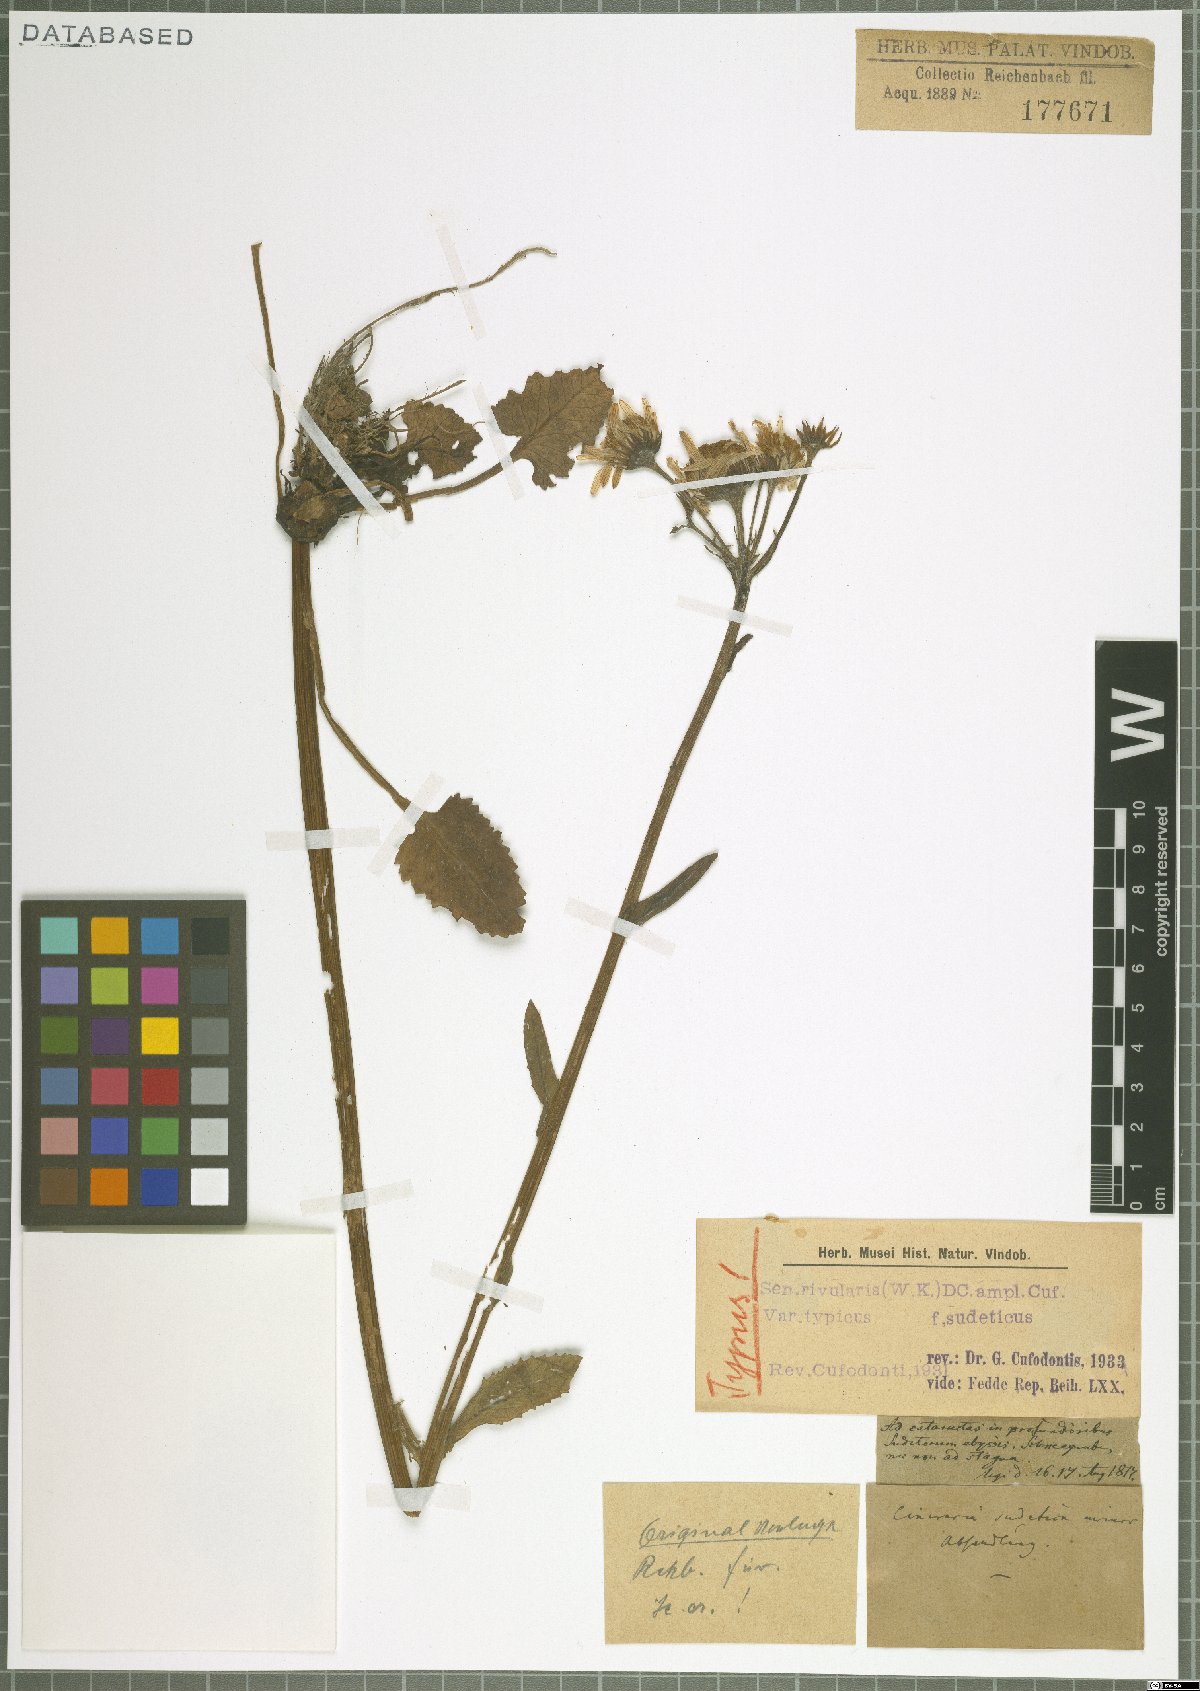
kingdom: Plantae
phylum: Tracheophyta
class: Magnoliopsida
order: Asterales
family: Asteraceae
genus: Tephroseris
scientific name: Tephroseris crispa
